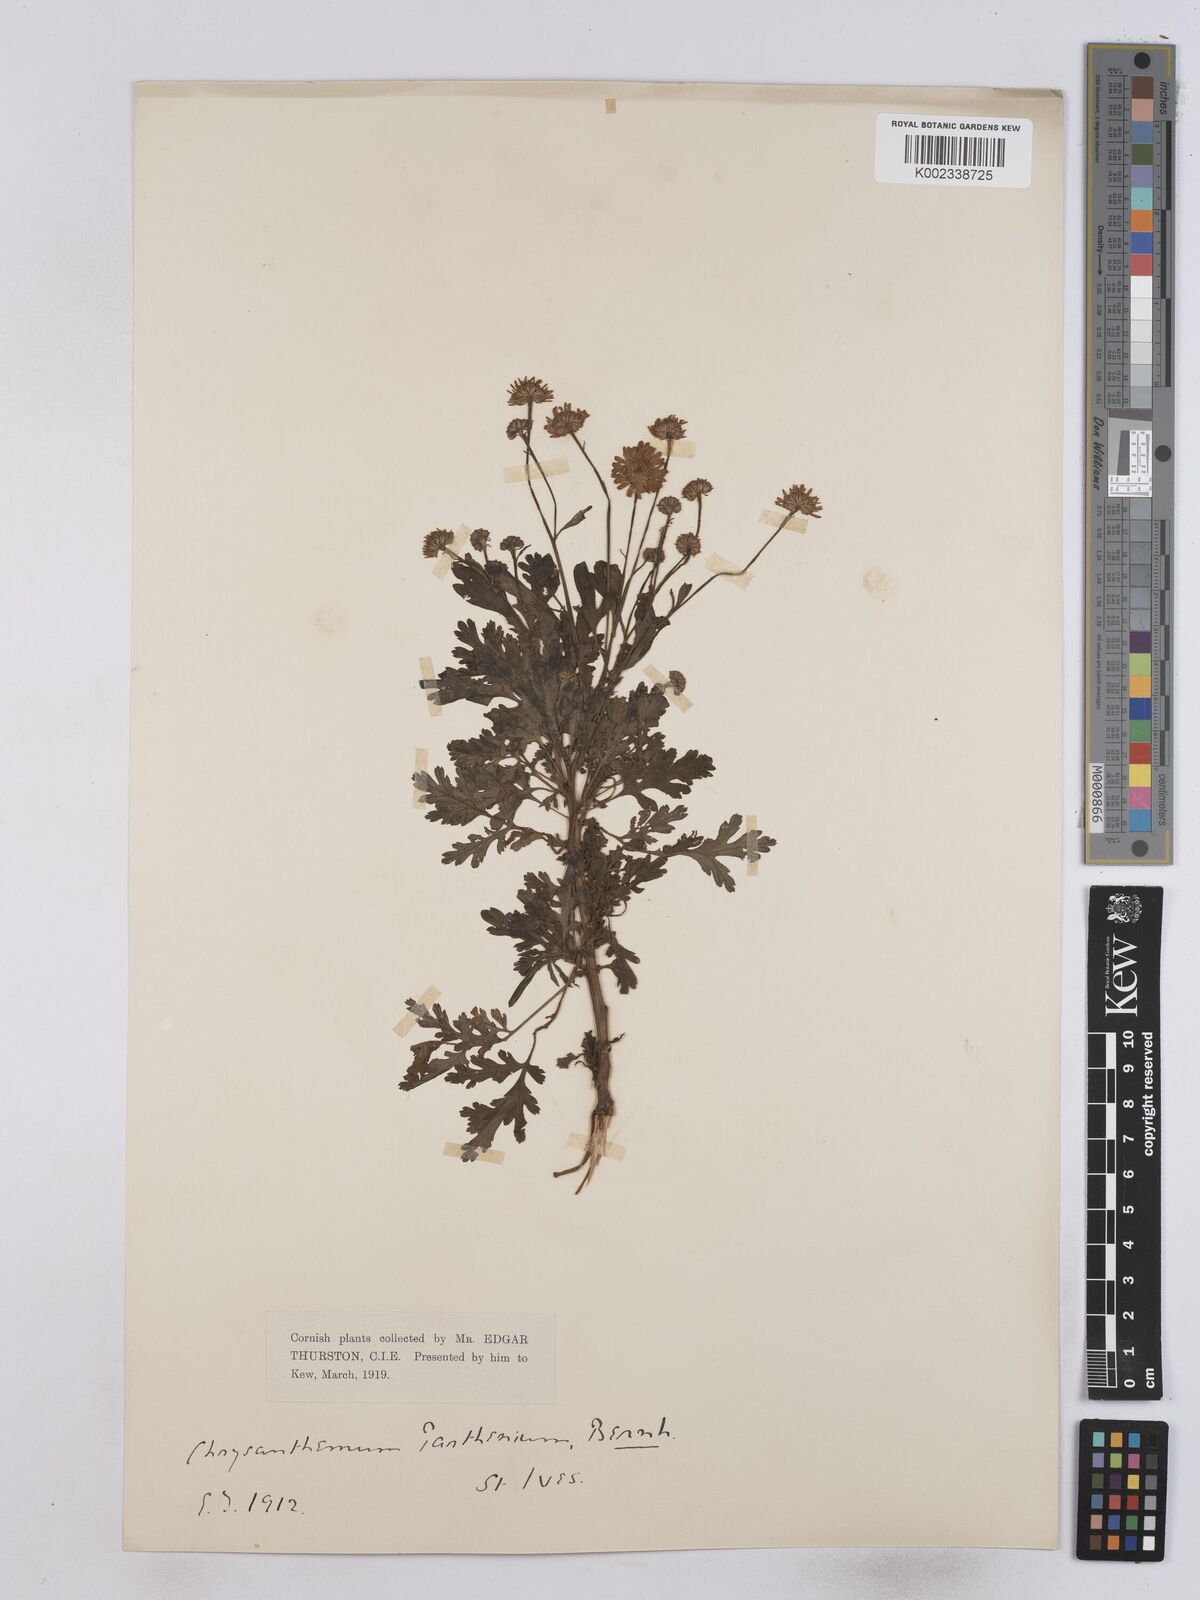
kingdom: Plantae
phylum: Tracheophyta
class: Magnoliopsida
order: Asterales
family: Asteraceae
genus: Tanacetum
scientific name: Tanacetum parthenium
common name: Feverfew
